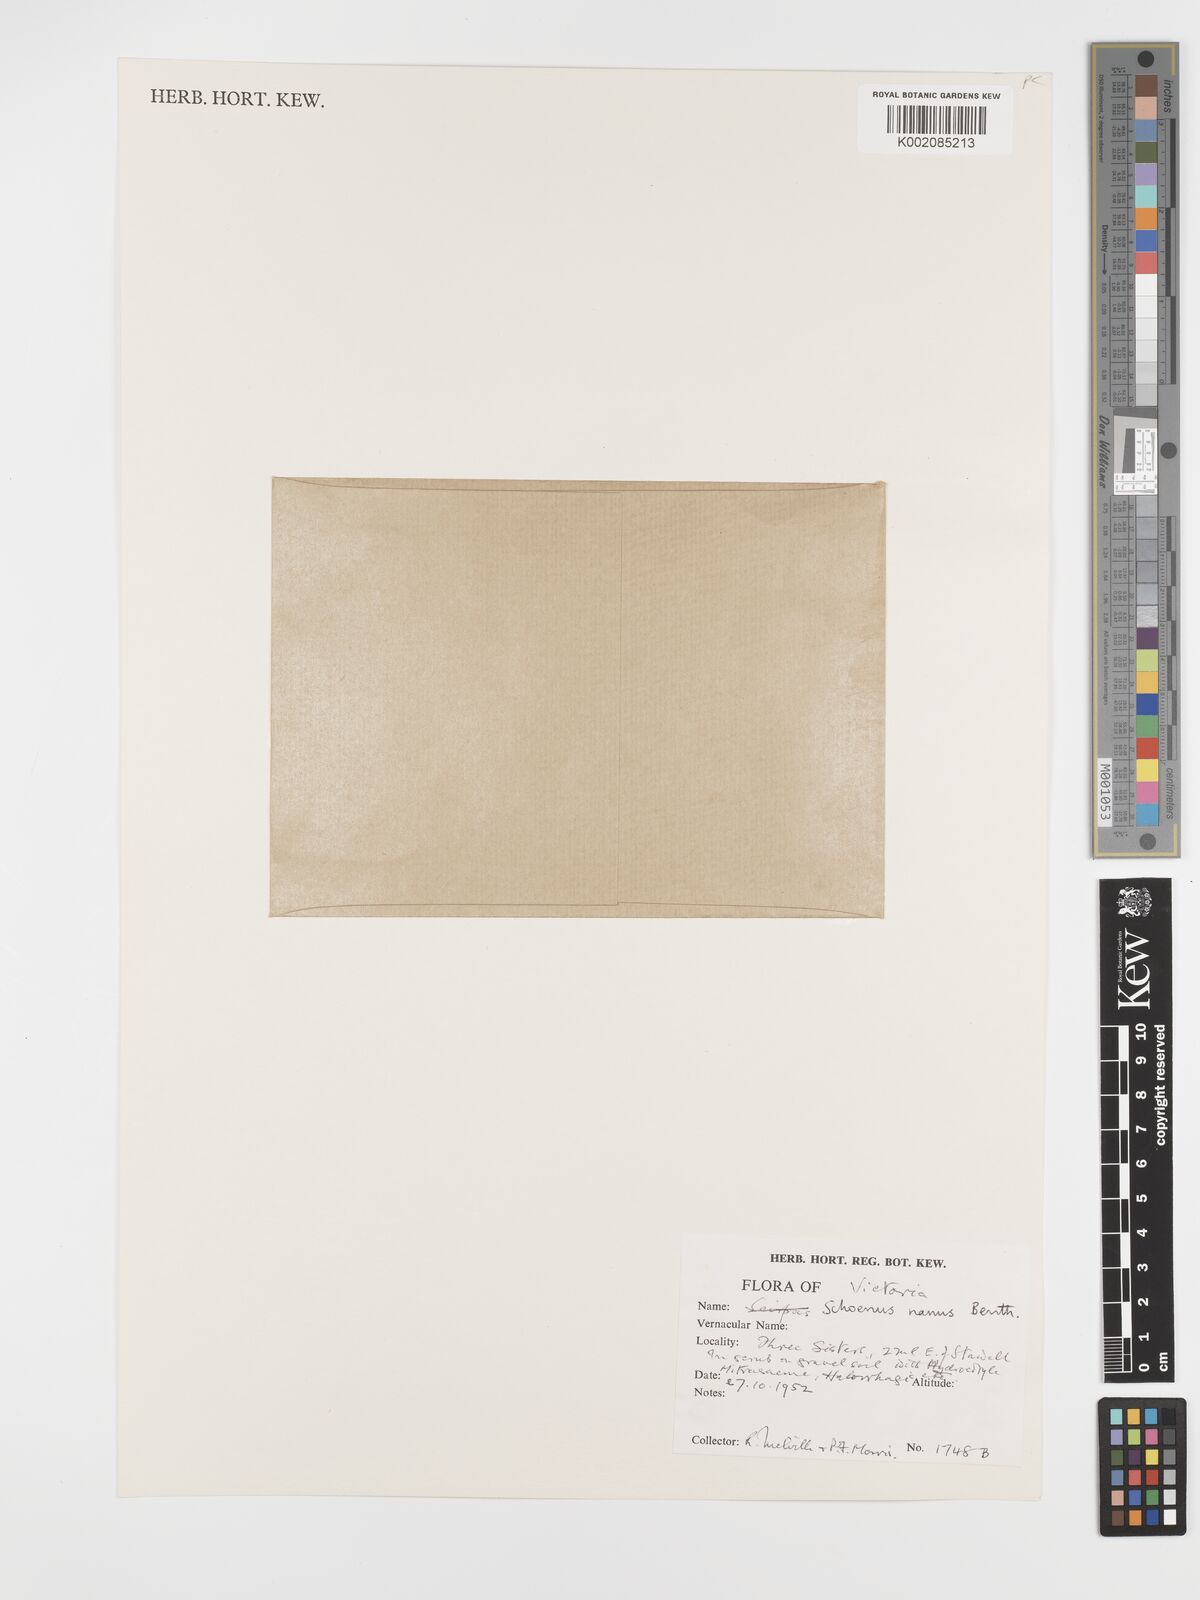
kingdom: Plantae
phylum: Tracheophyta
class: Liliopsida
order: Poales
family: Cyperaceae
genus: Schoenus
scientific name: Schoenus nanus
